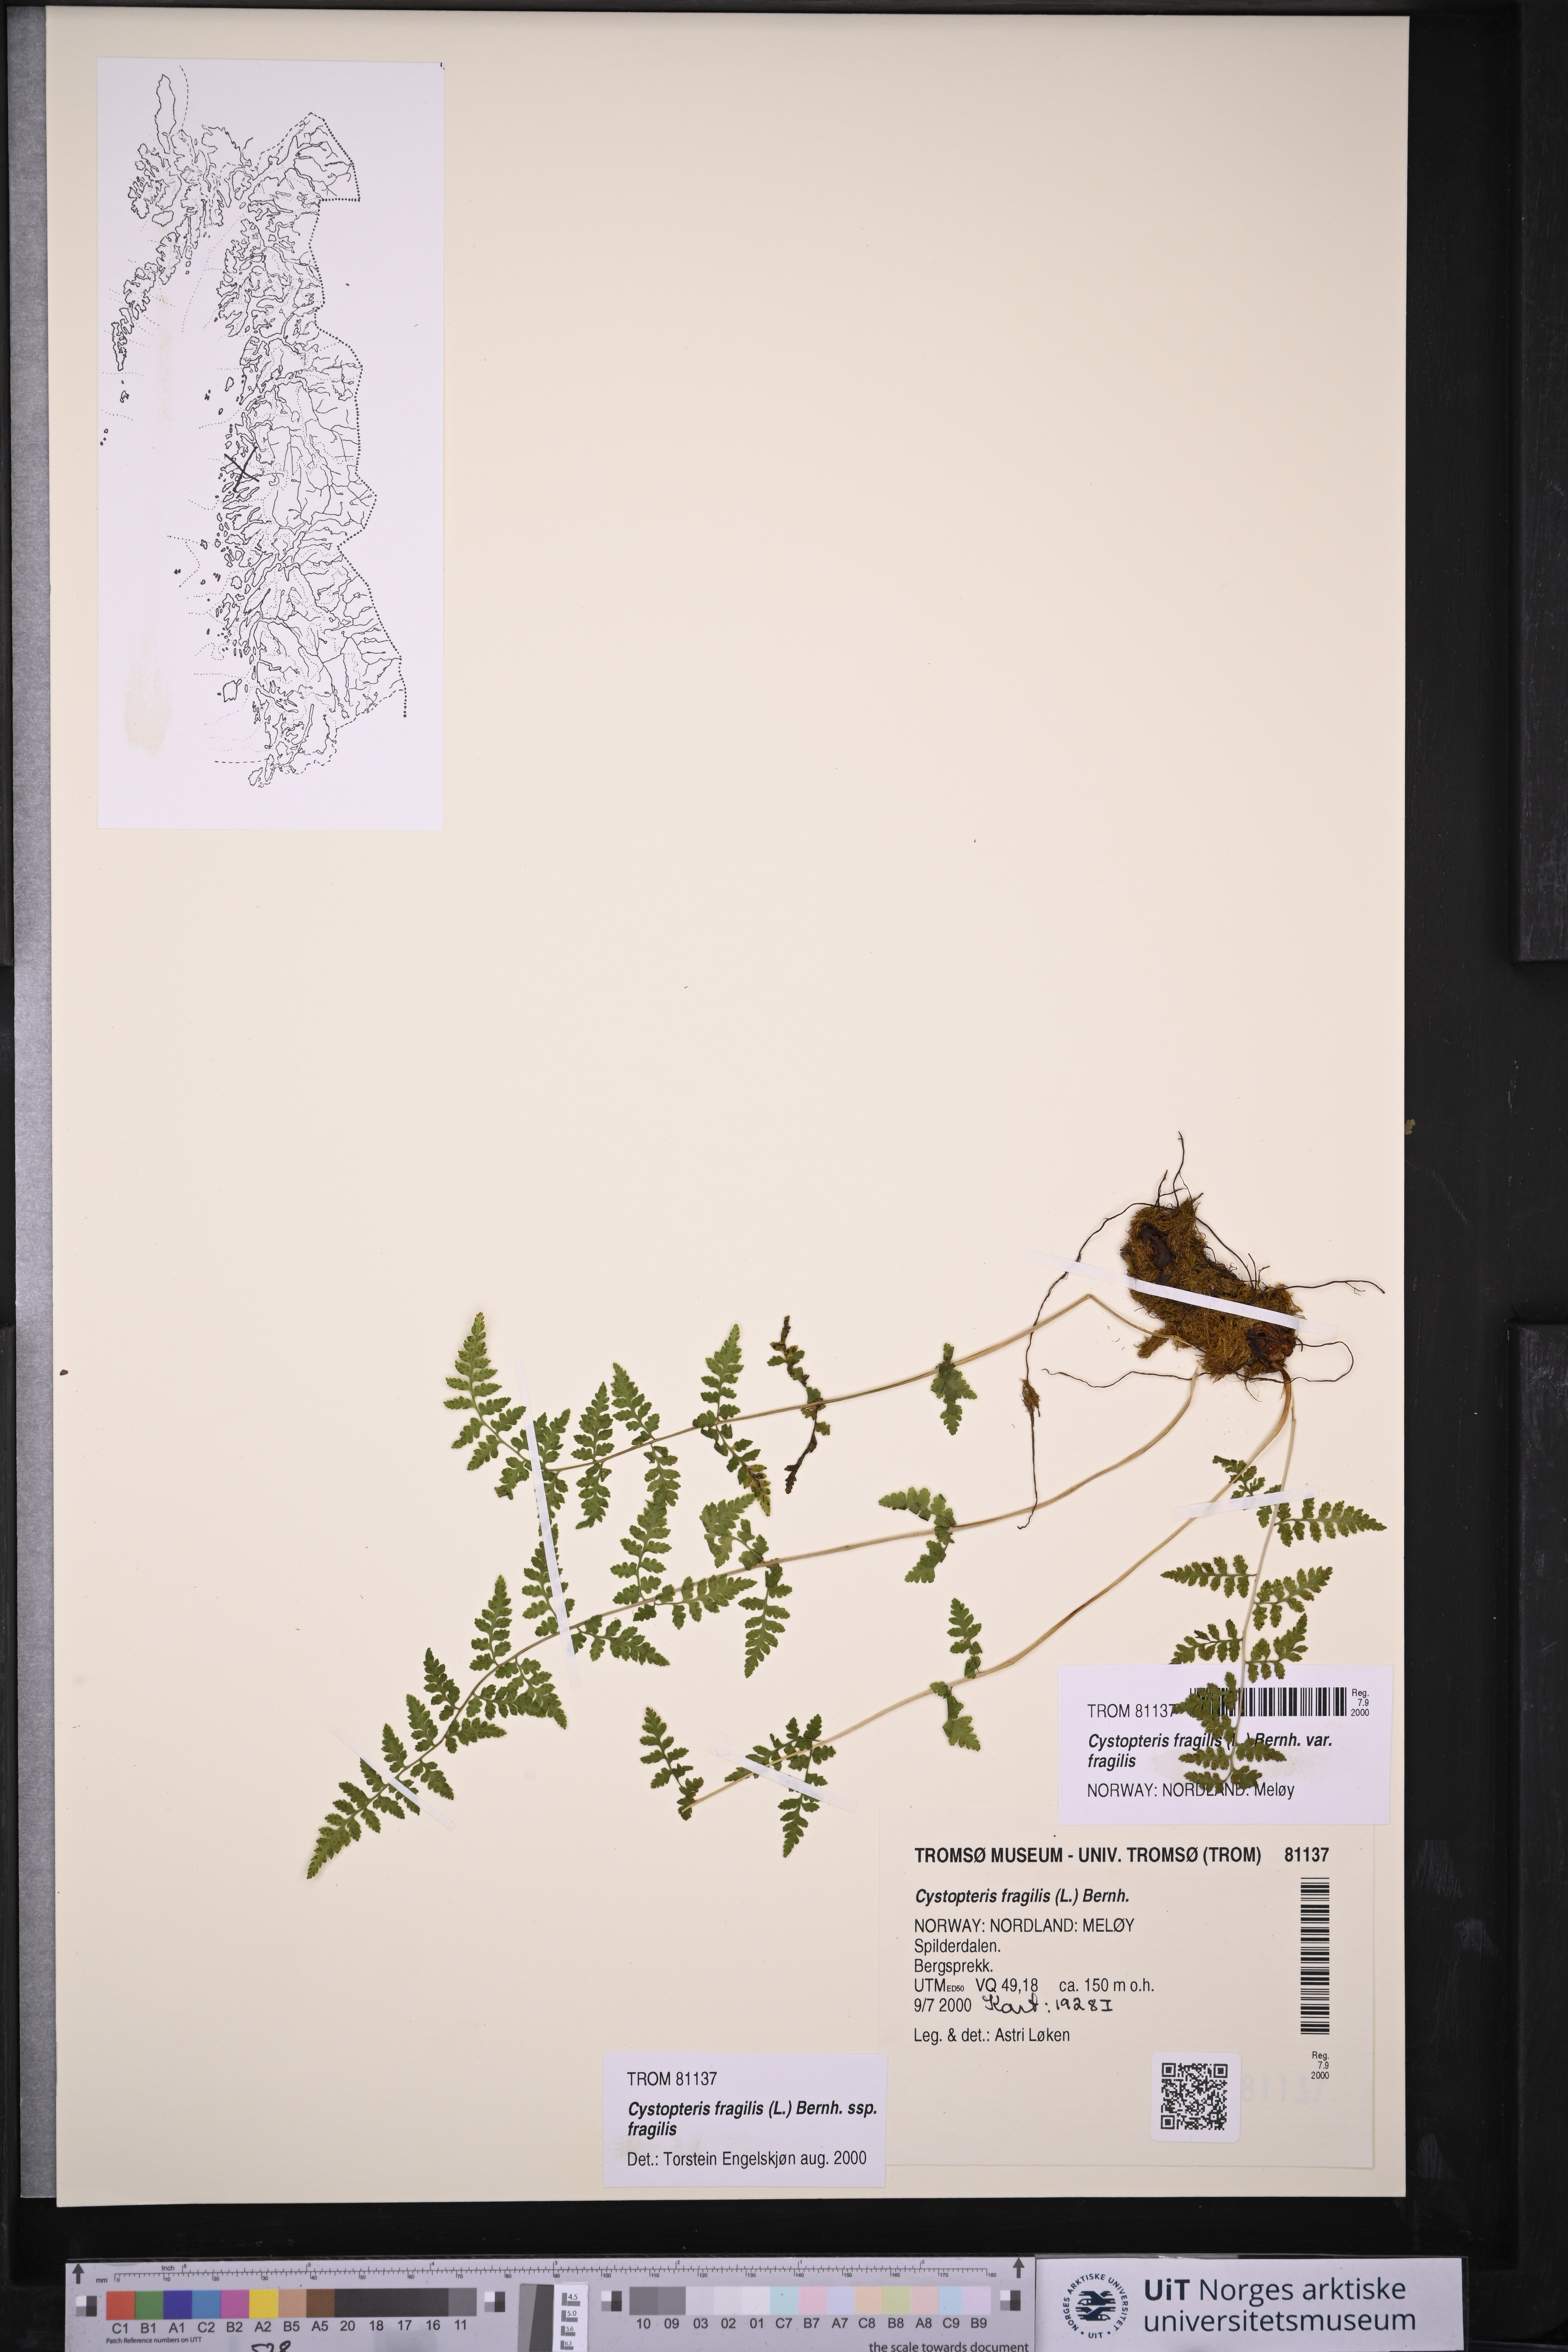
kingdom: Plantae
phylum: Tracheophyta
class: Polypodiopsida
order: Polypodiales
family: Cystopteridaceae
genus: Cystopteris
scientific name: Cystopteris fragilis
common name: Brittle bladder fern
